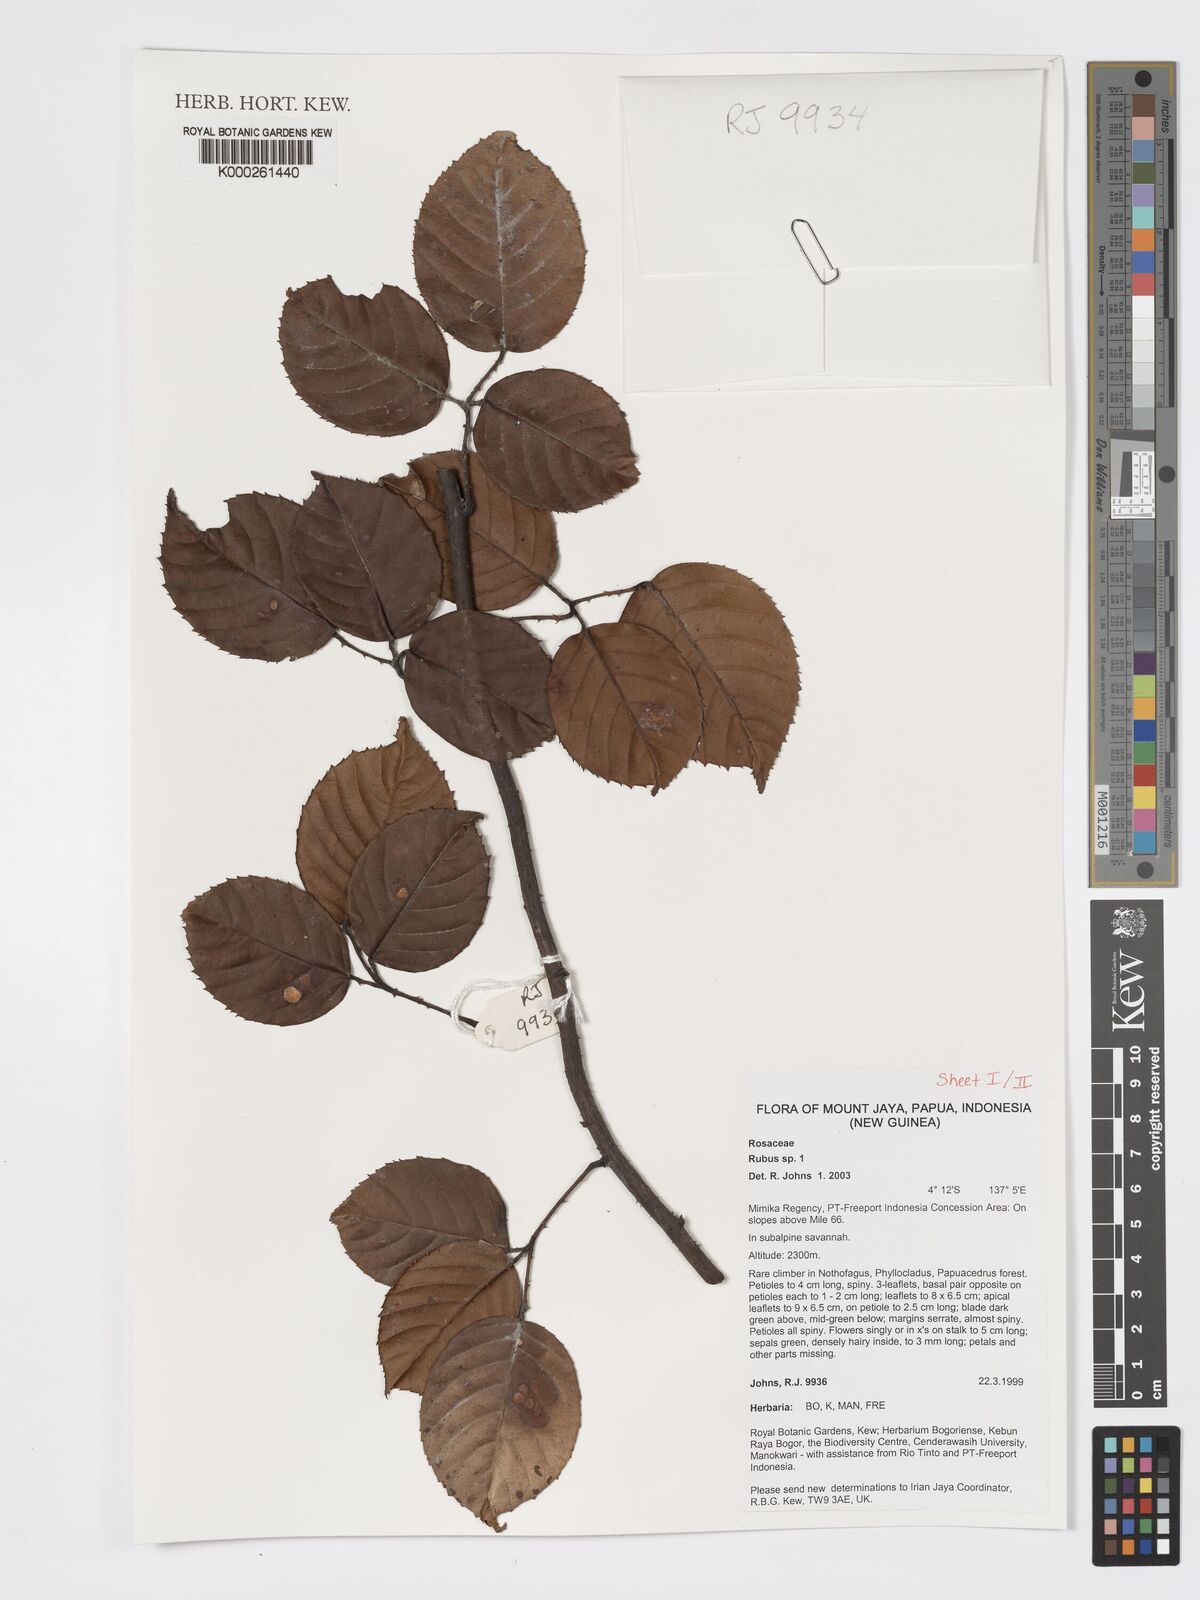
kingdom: Plantae
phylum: Tracheophyta
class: Magnoliopsida
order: Rosales
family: Rosaceae
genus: Rubus
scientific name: Rubus
